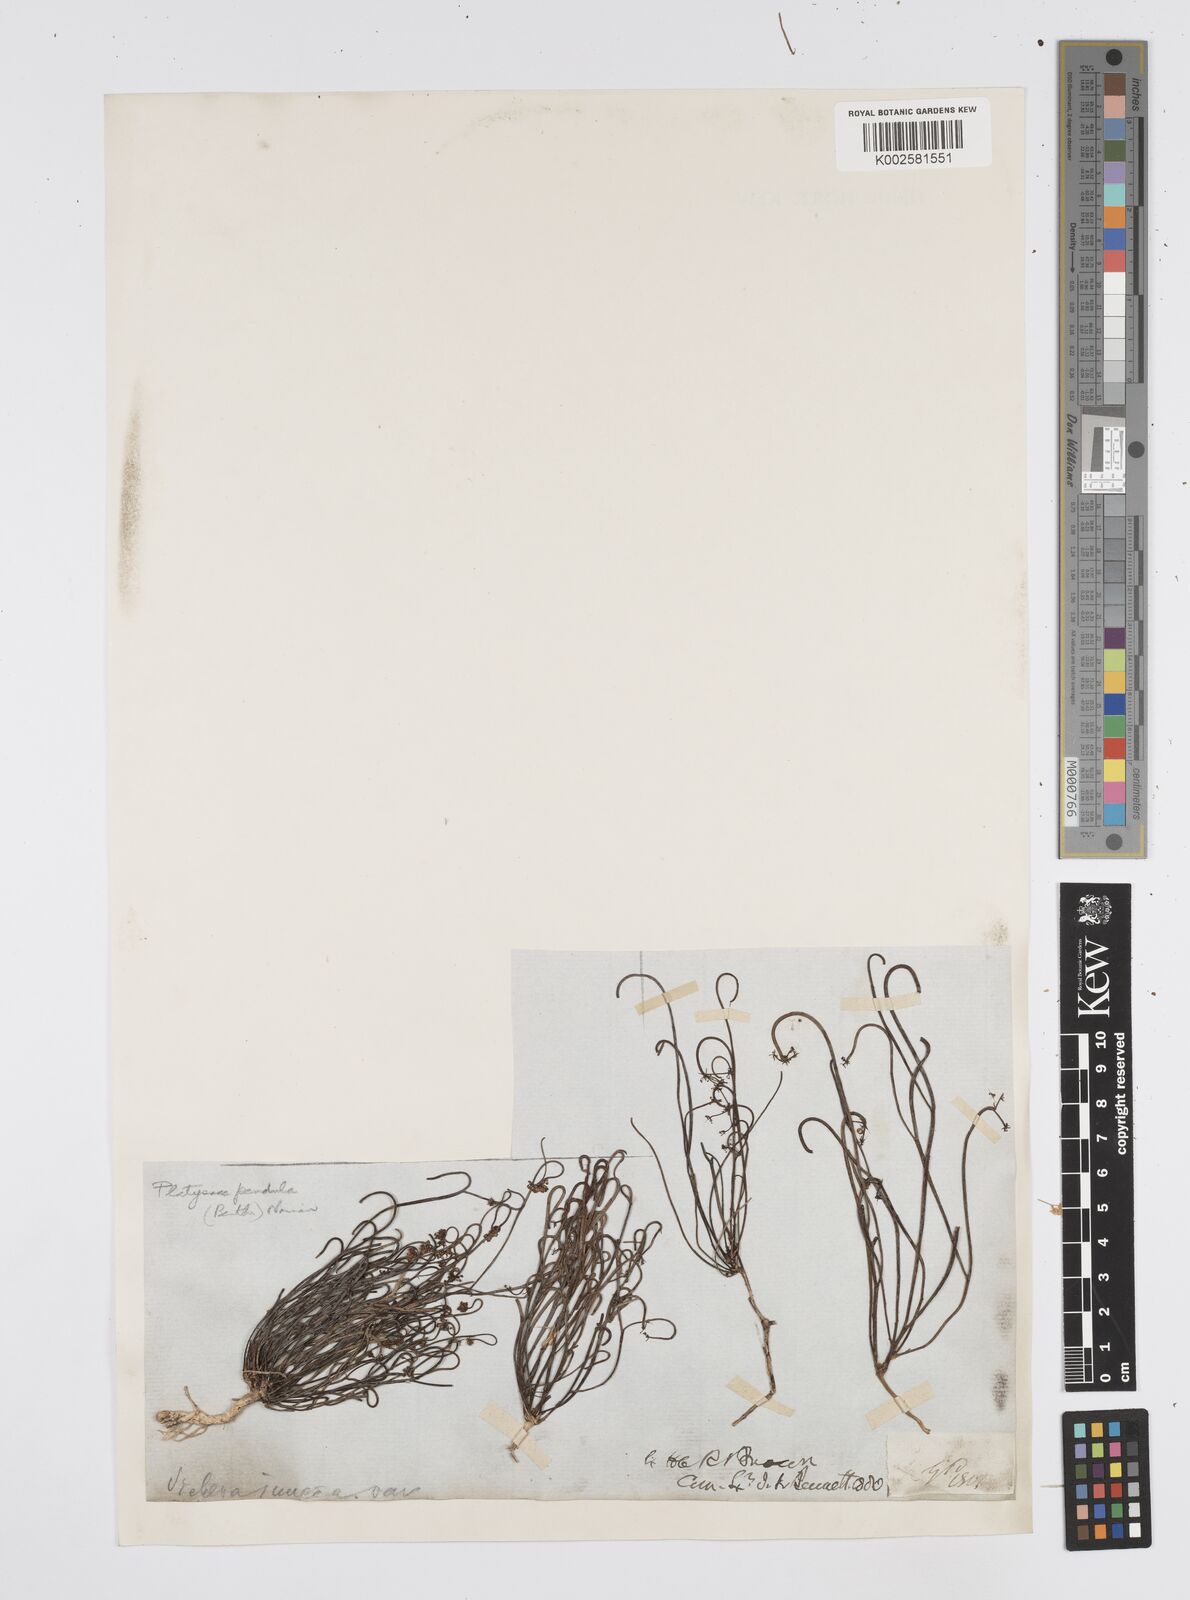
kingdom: Plantae
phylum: Tracheophyta
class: Magnoliopsida
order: Apiales
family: Apiaceae
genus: Centella
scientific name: Centella
